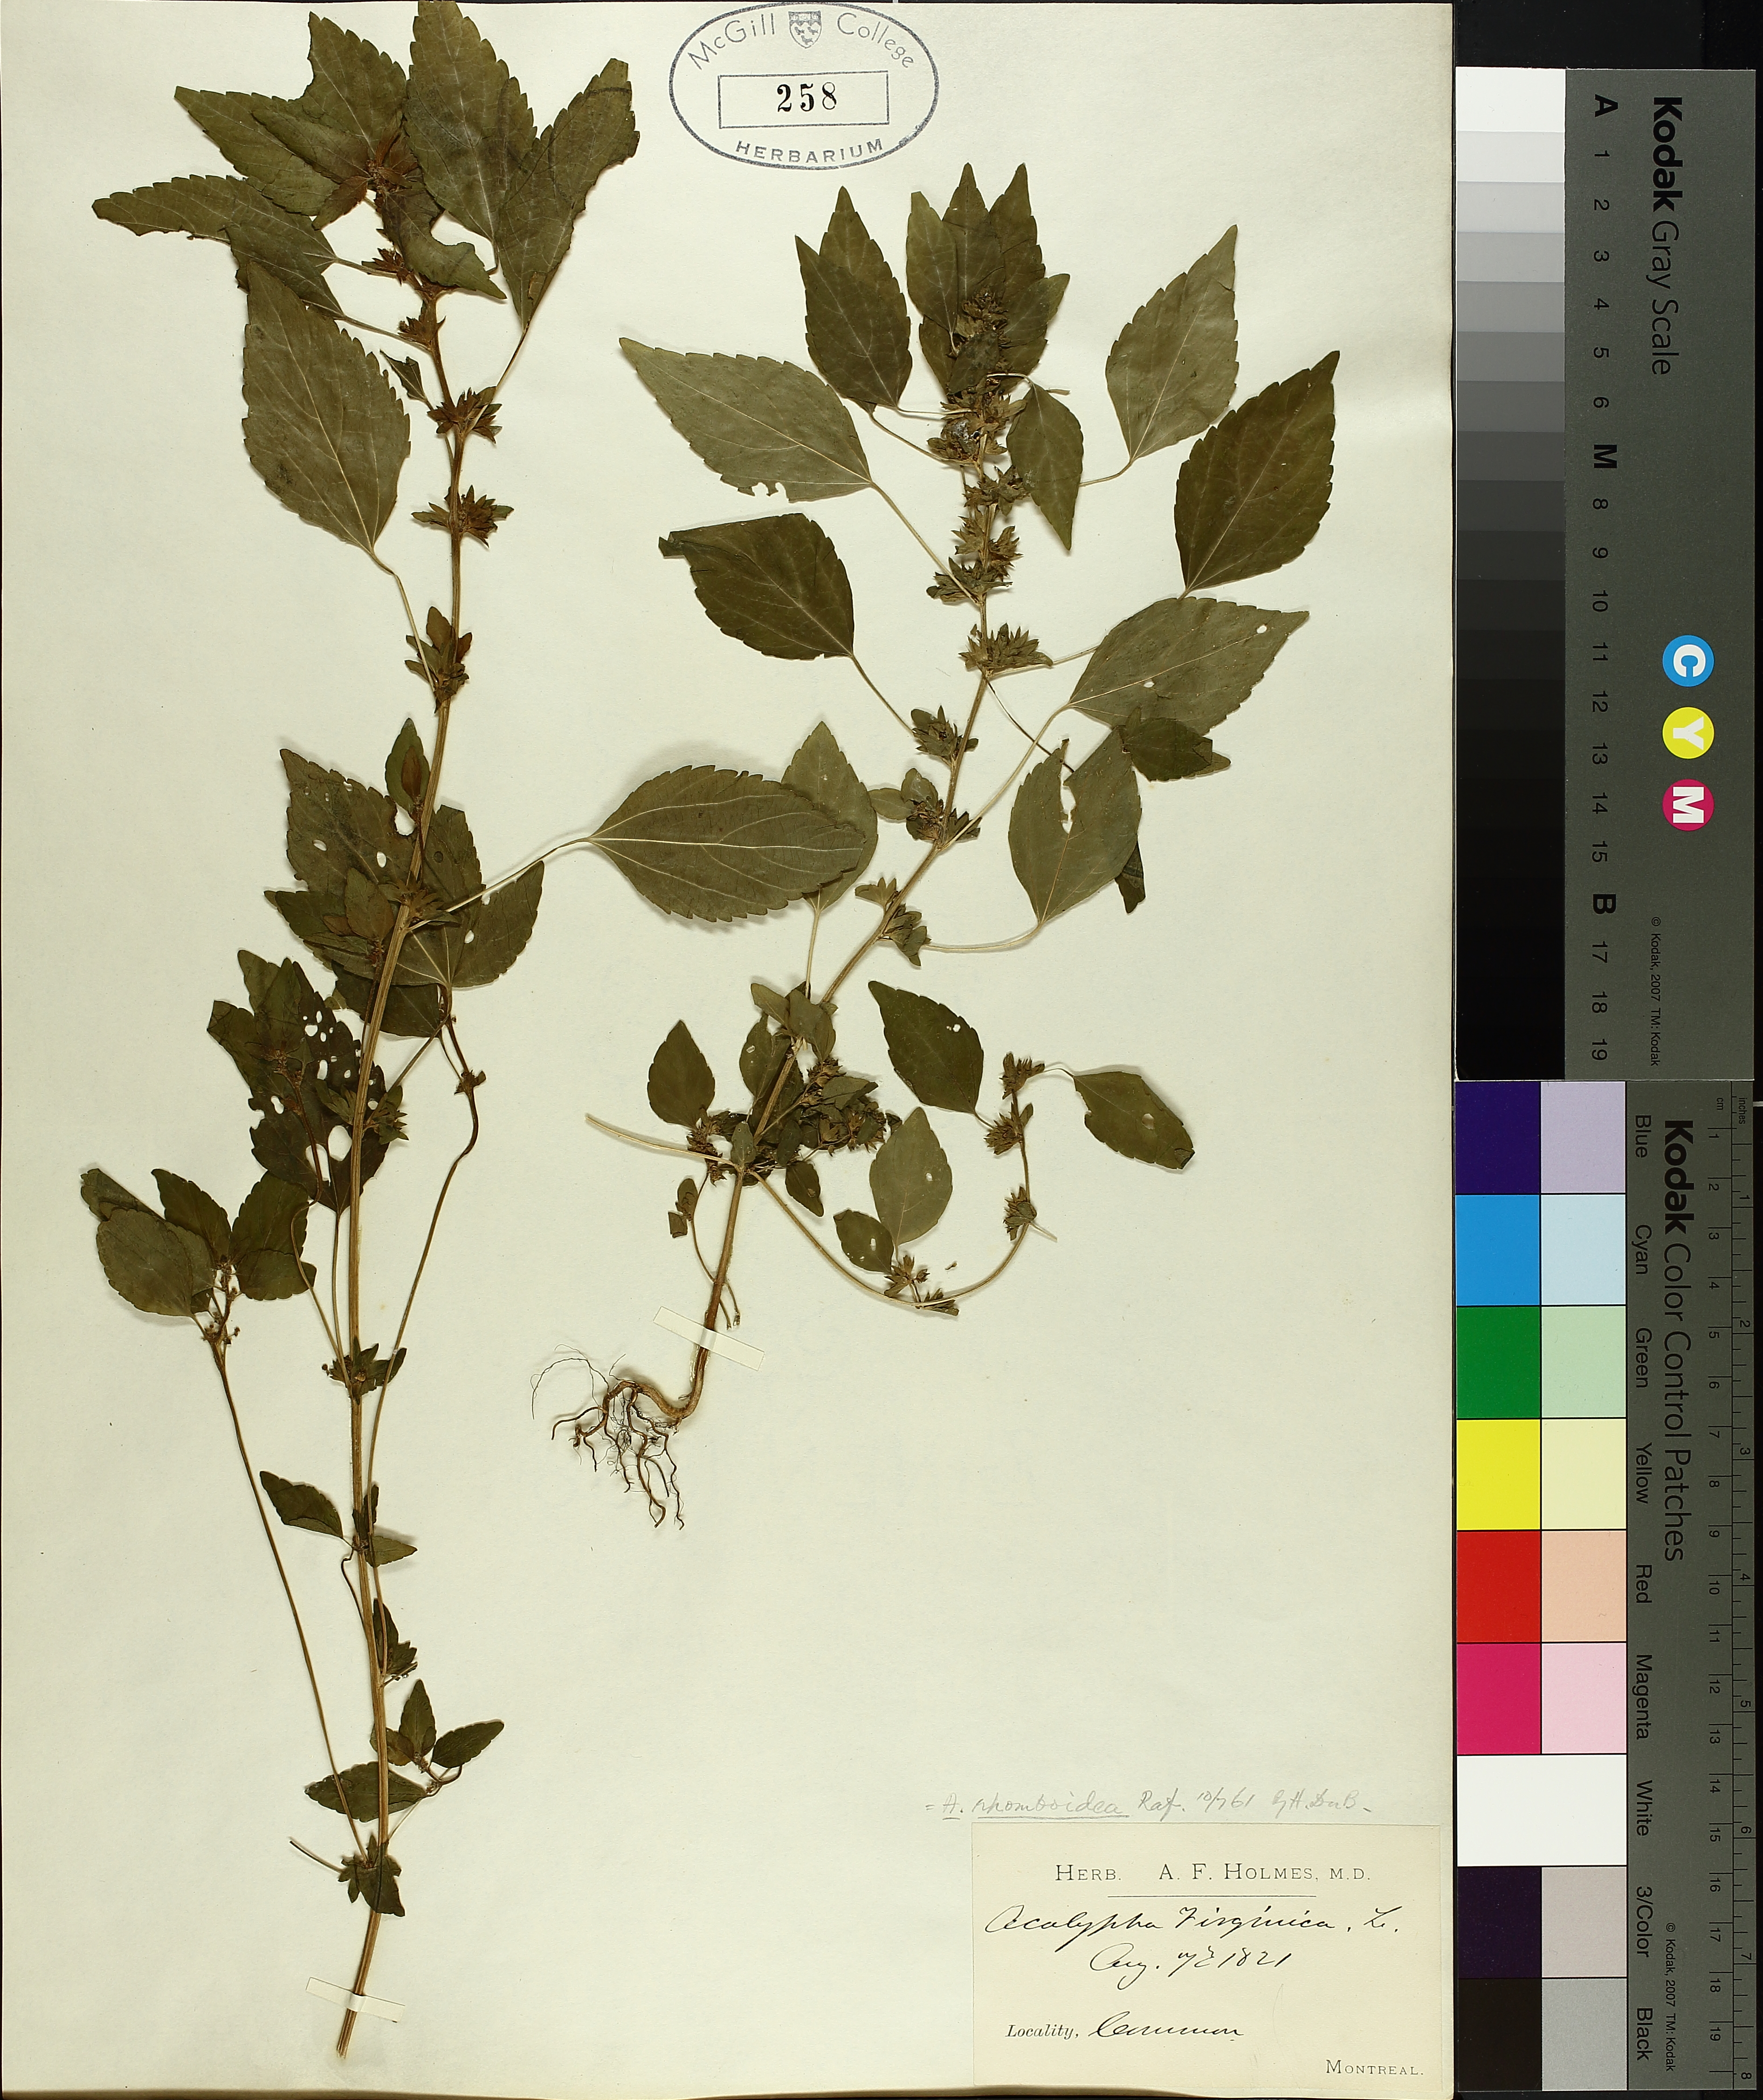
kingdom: Plantae
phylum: Tracheophyta
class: Magnoliopsida
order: Malpighiales
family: Euphorbiaceae
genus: Acalypha
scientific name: Acalypha rhomboidea
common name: Rhombic copperleaf
